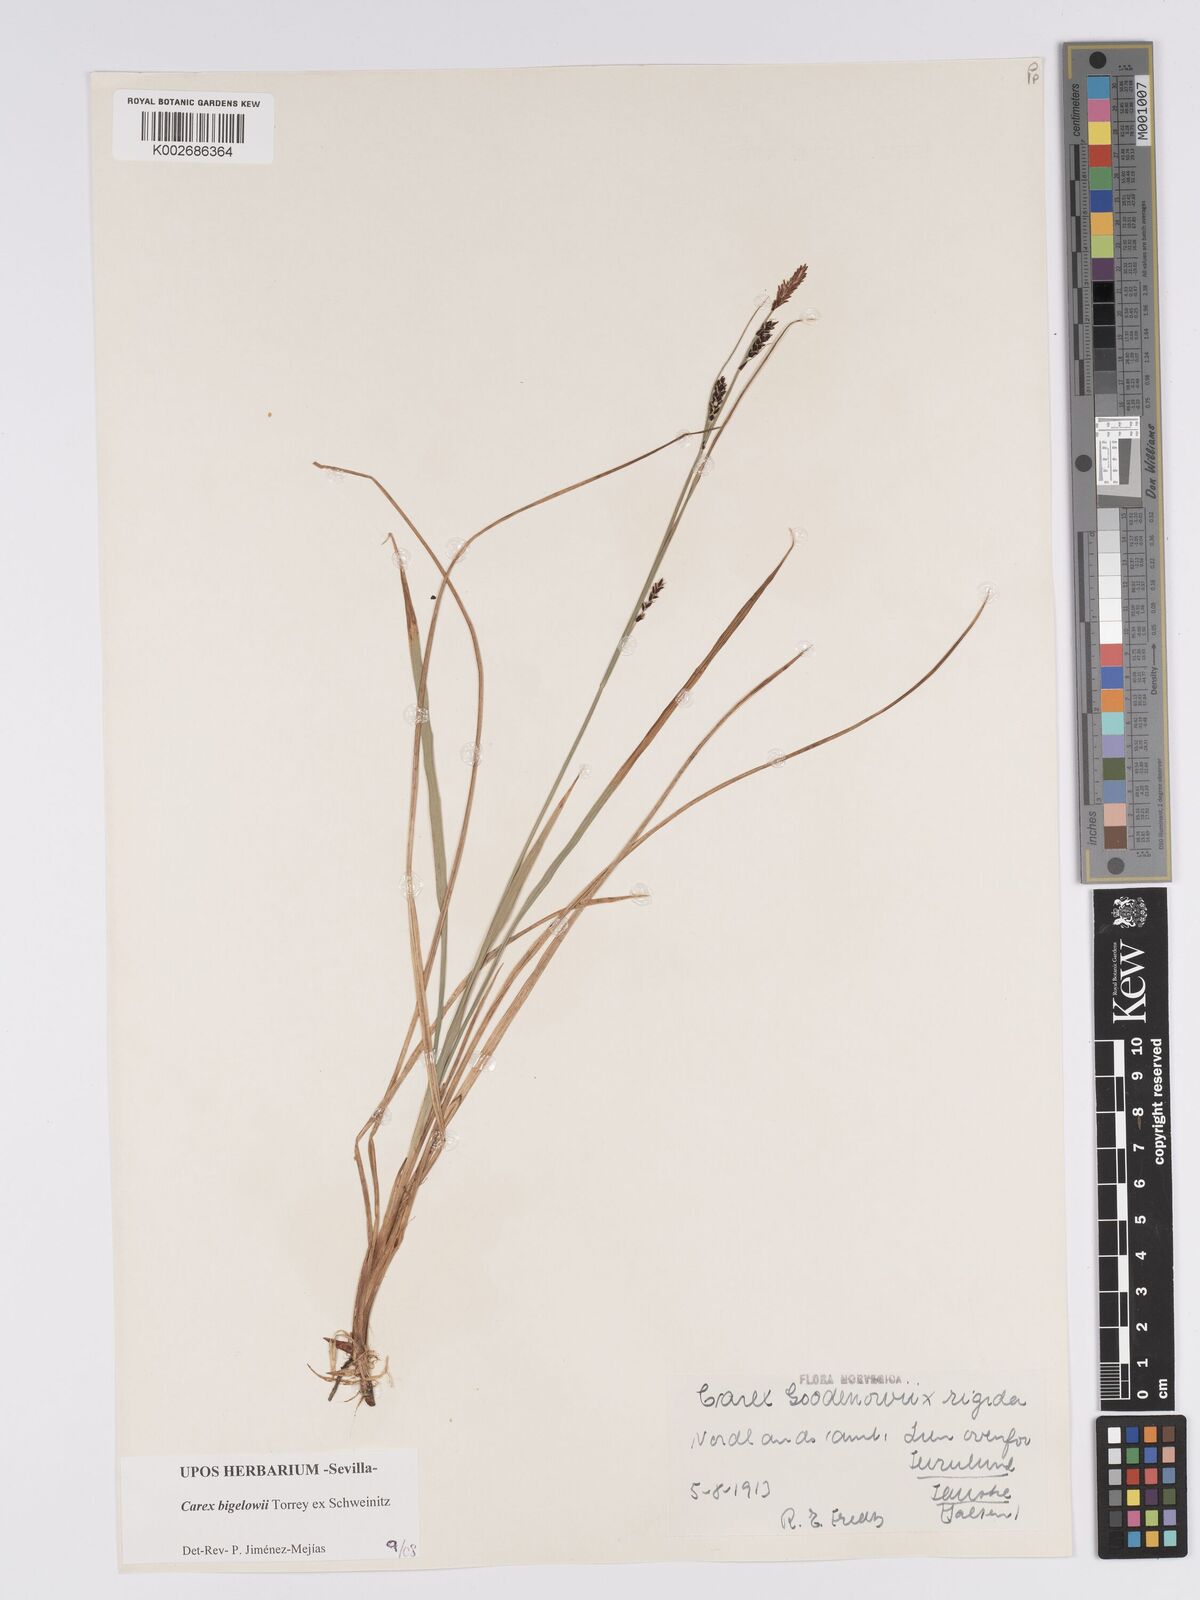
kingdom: Plantae
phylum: Tracheophyta
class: Liliopsida
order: Poales
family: Cyperaceae
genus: Carex
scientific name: Carex bigelowii
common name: Stiff sedge
